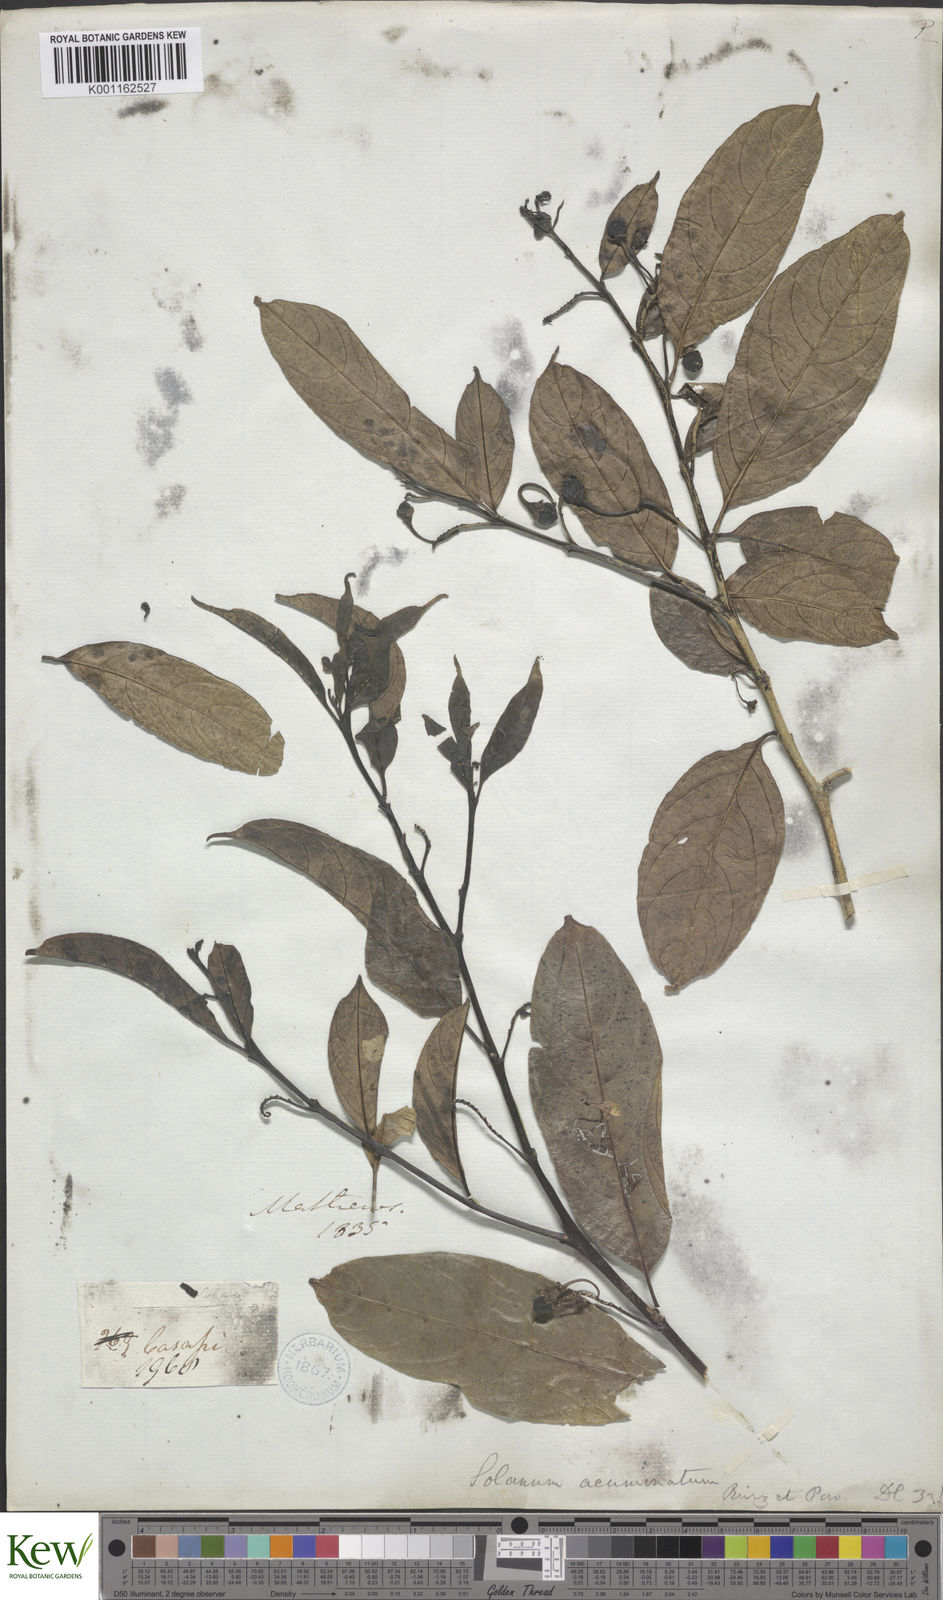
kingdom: Plantae
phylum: Tracheophyta
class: Magnoliopsida
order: Solanales
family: Solanaceae
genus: Solanum
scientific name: Solanum acuminatum
